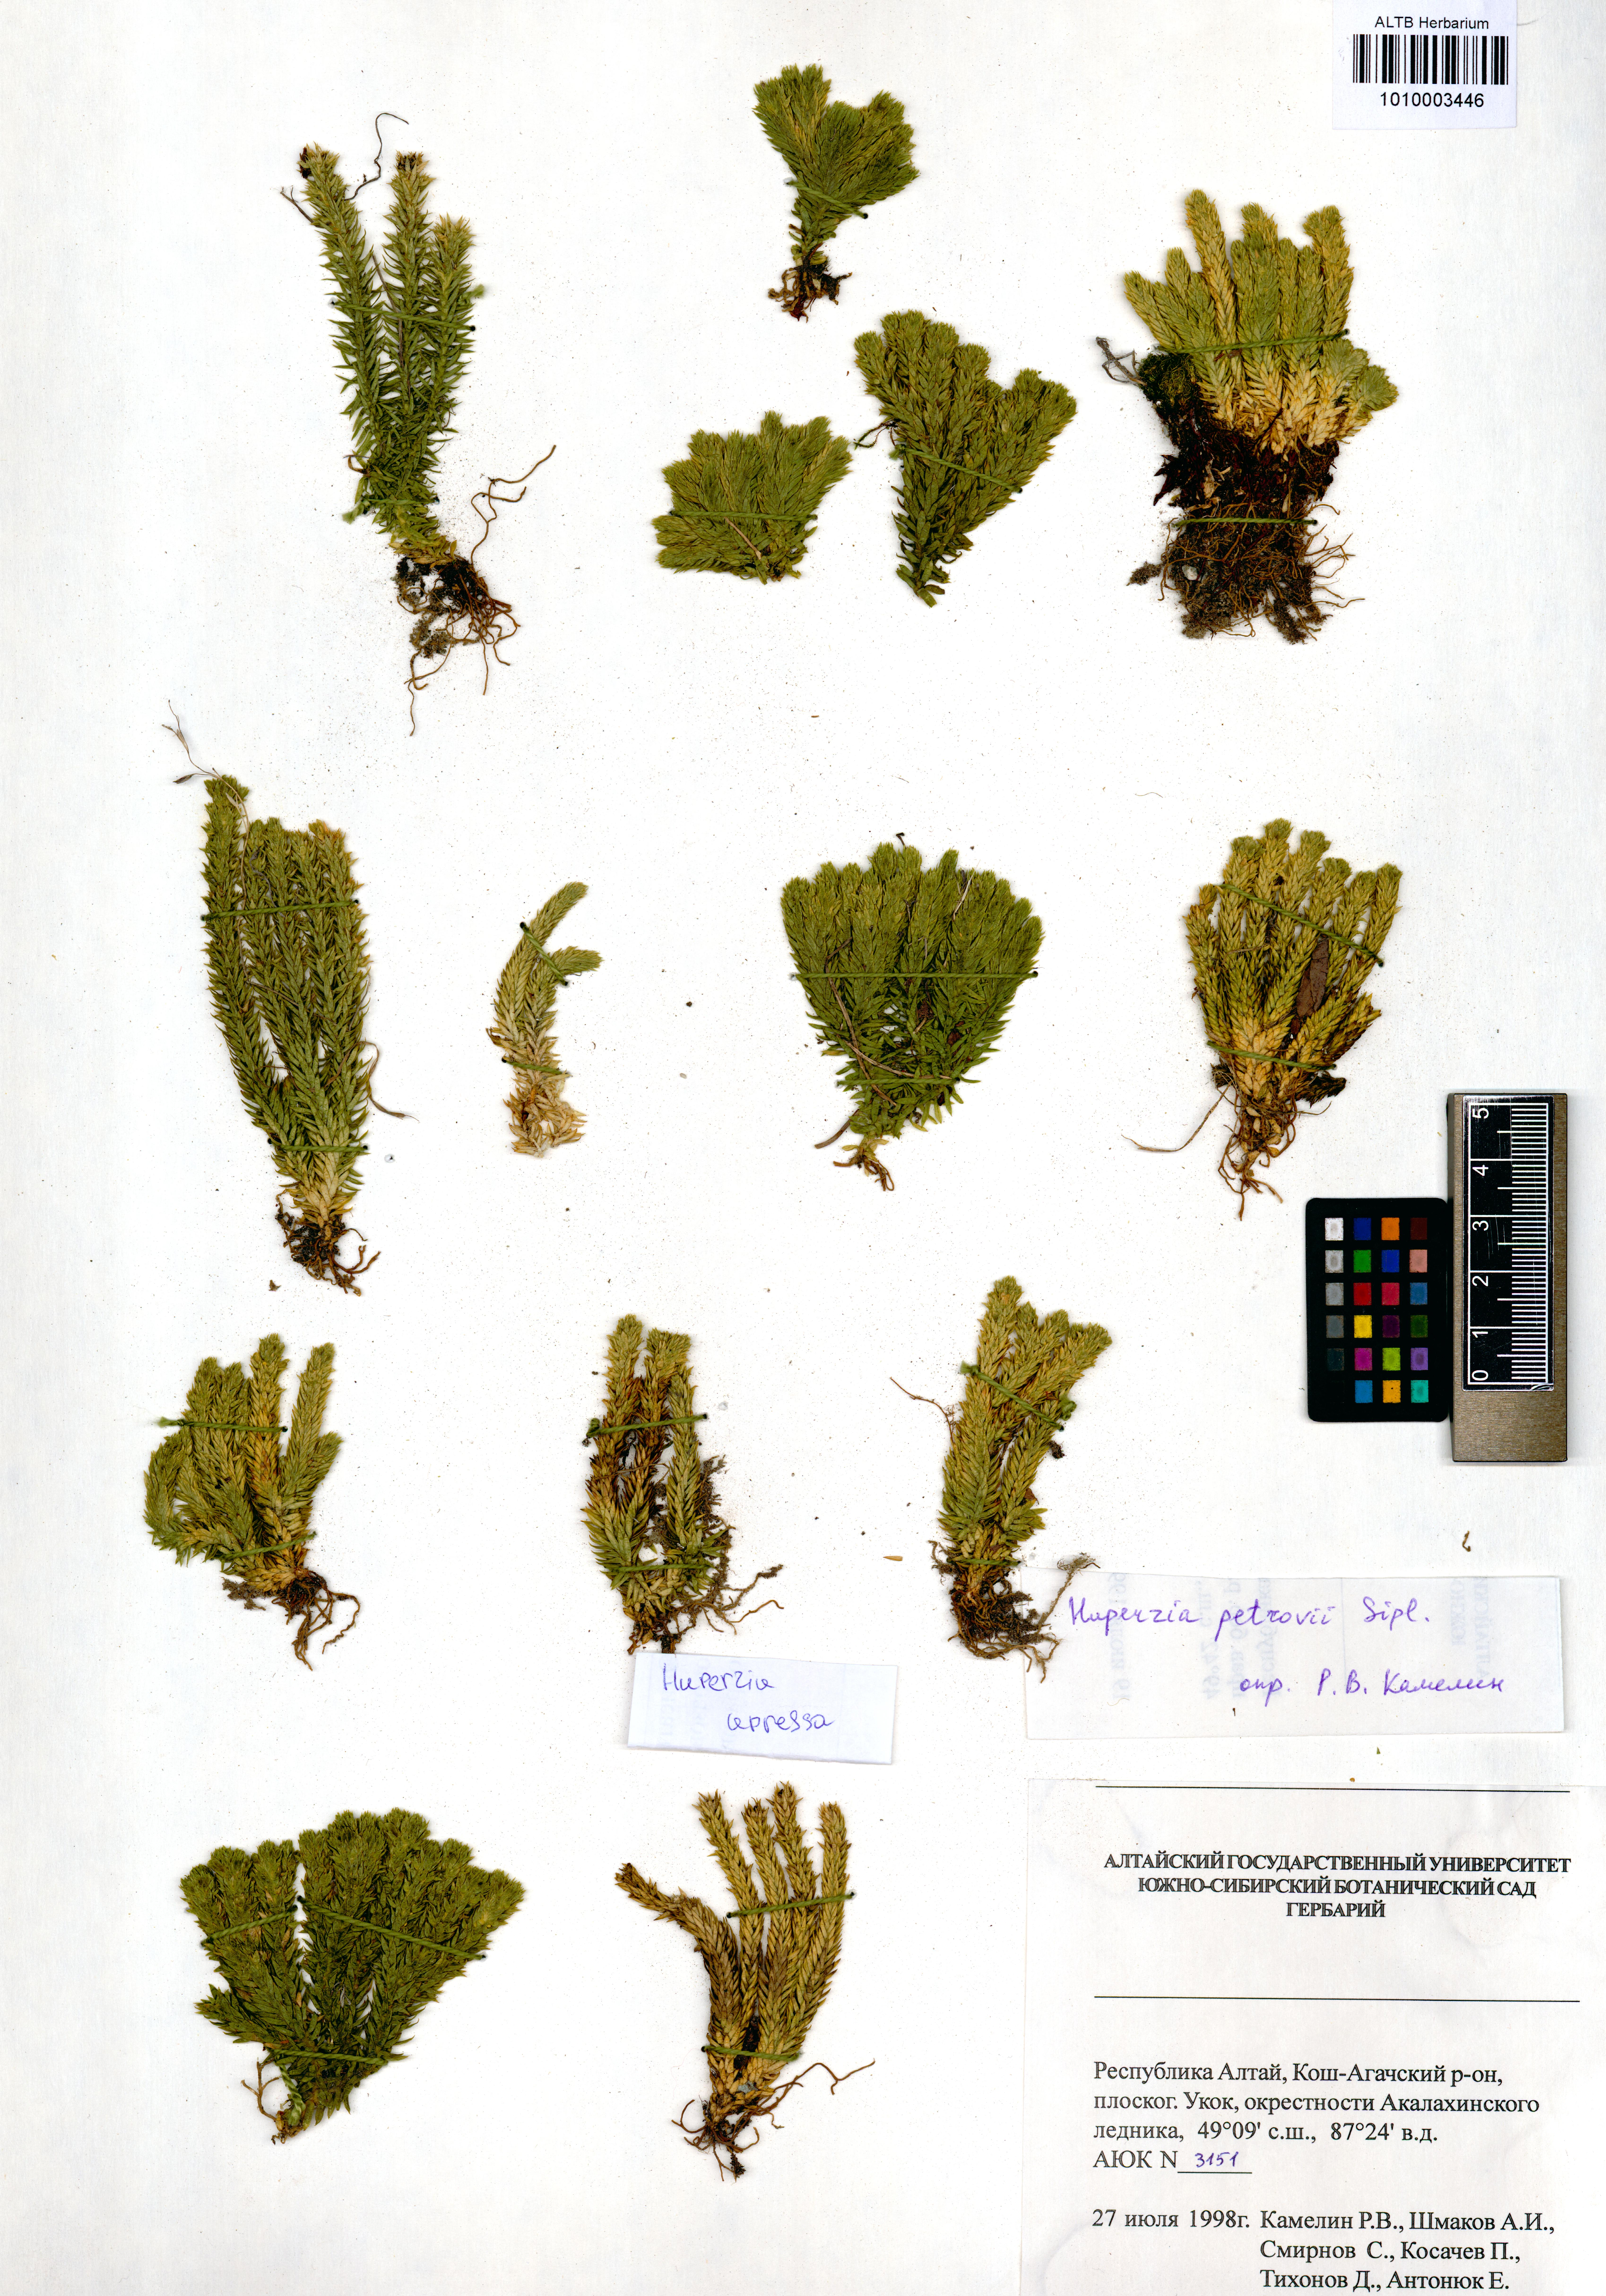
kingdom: Plantae
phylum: Tracheophyta
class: Lycopodiopsida
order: Lycopodiales
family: Lycopodiaceae
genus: Huperzia
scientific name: Huperzia selago
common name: Northern firmoss
